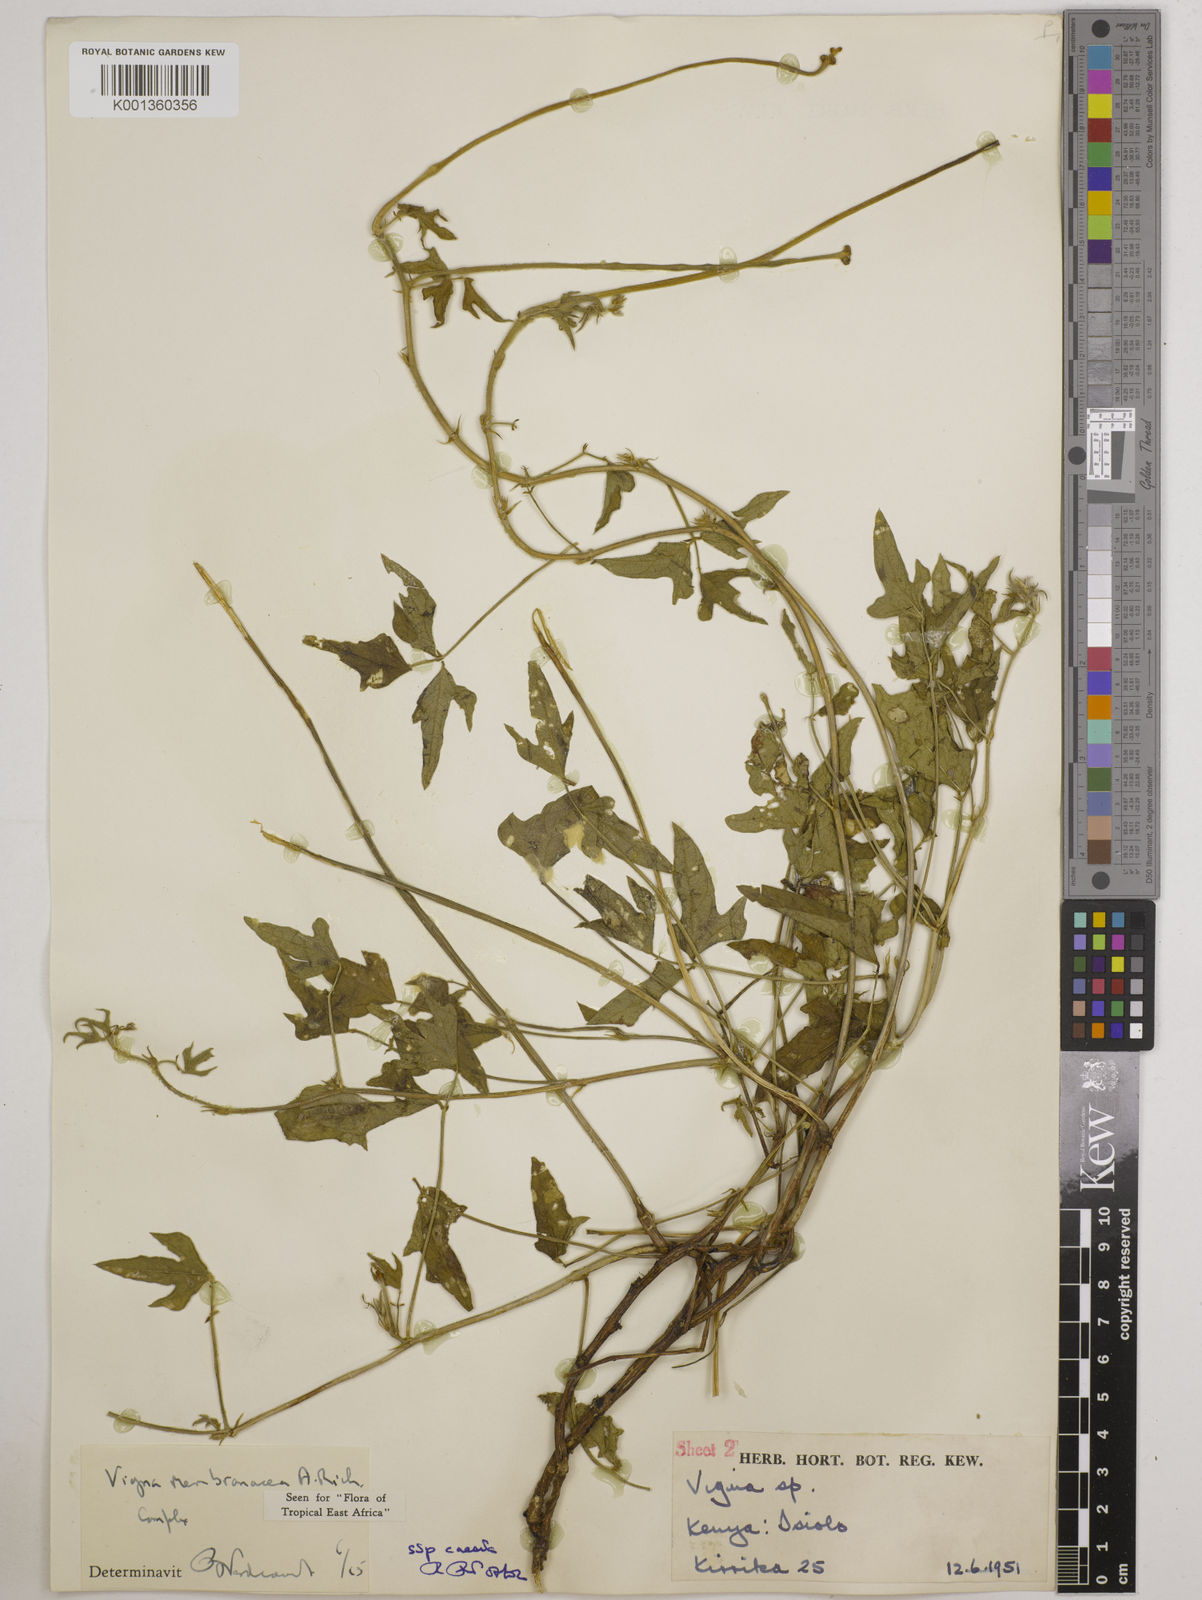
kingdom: Plantae
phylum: Tracheophyta
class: Magnoliopsida
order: Fabales
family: Fabaceae
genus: Vigna
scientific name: Vigna
